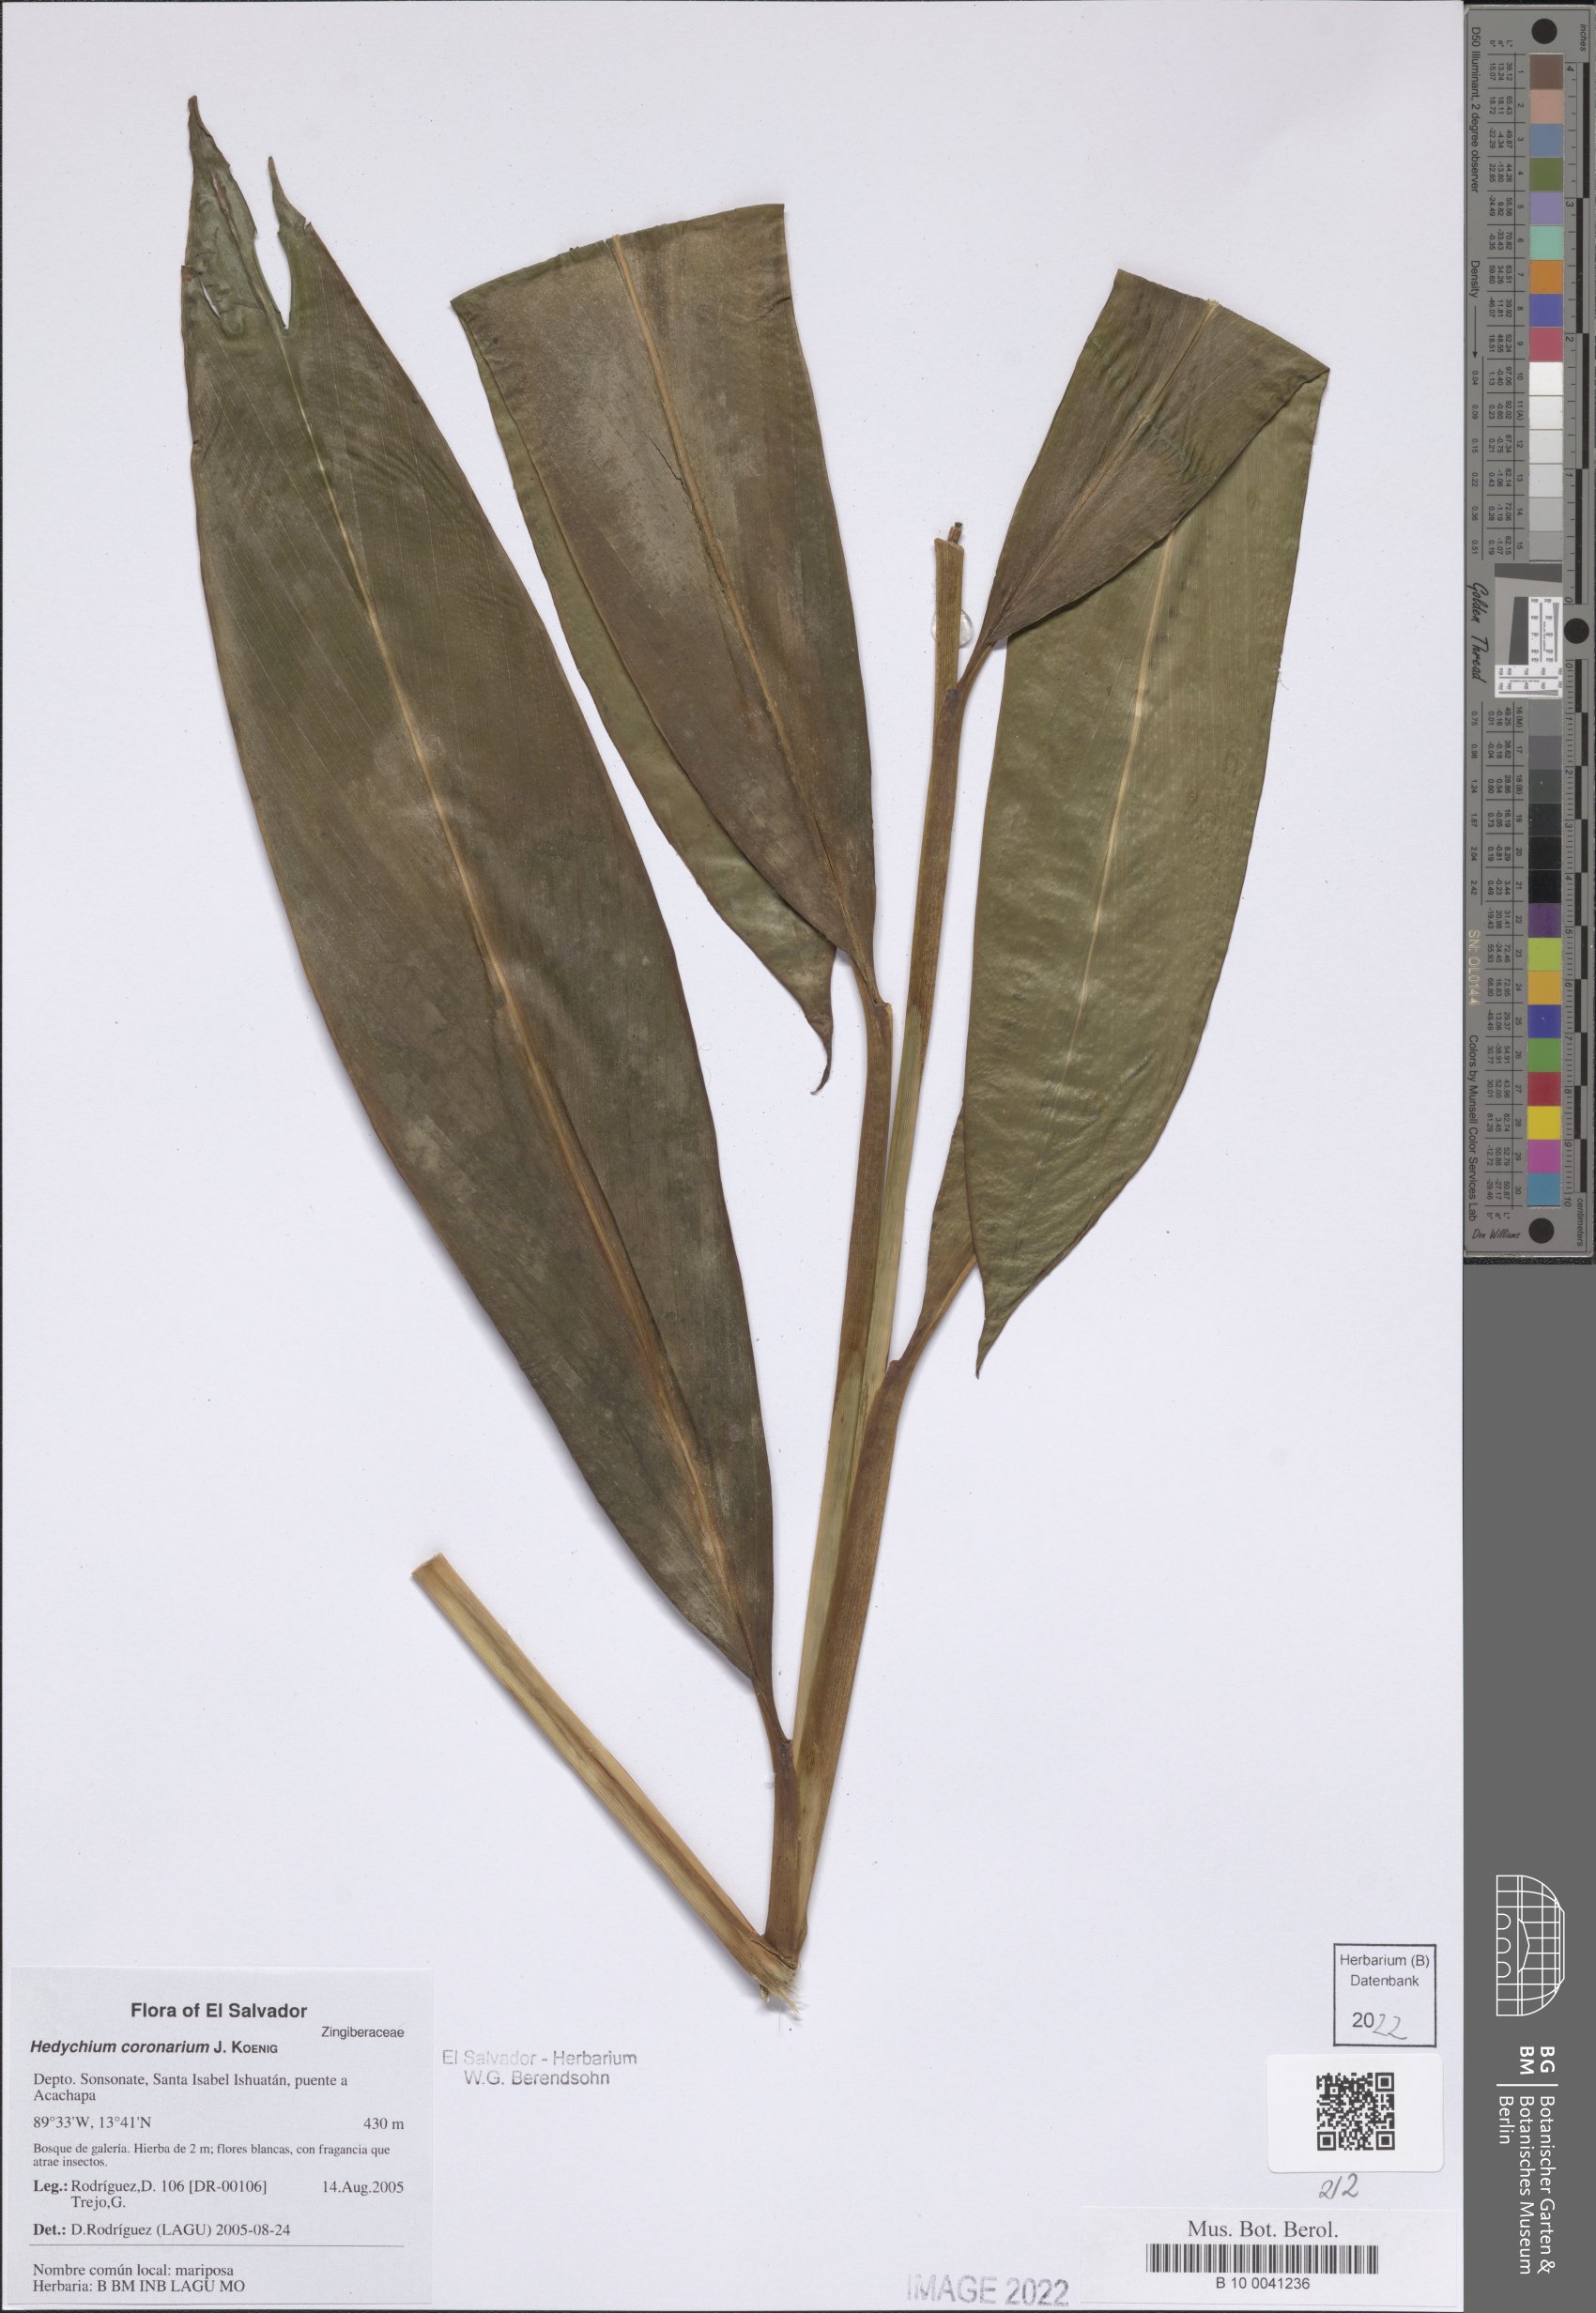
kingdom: Plantae
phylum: Tracheophyta
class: Liliopsida
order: Zingiberales
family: Zingiberaceae
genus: Hedychium
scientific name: Hedychium coronarium
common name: White garland-lily
